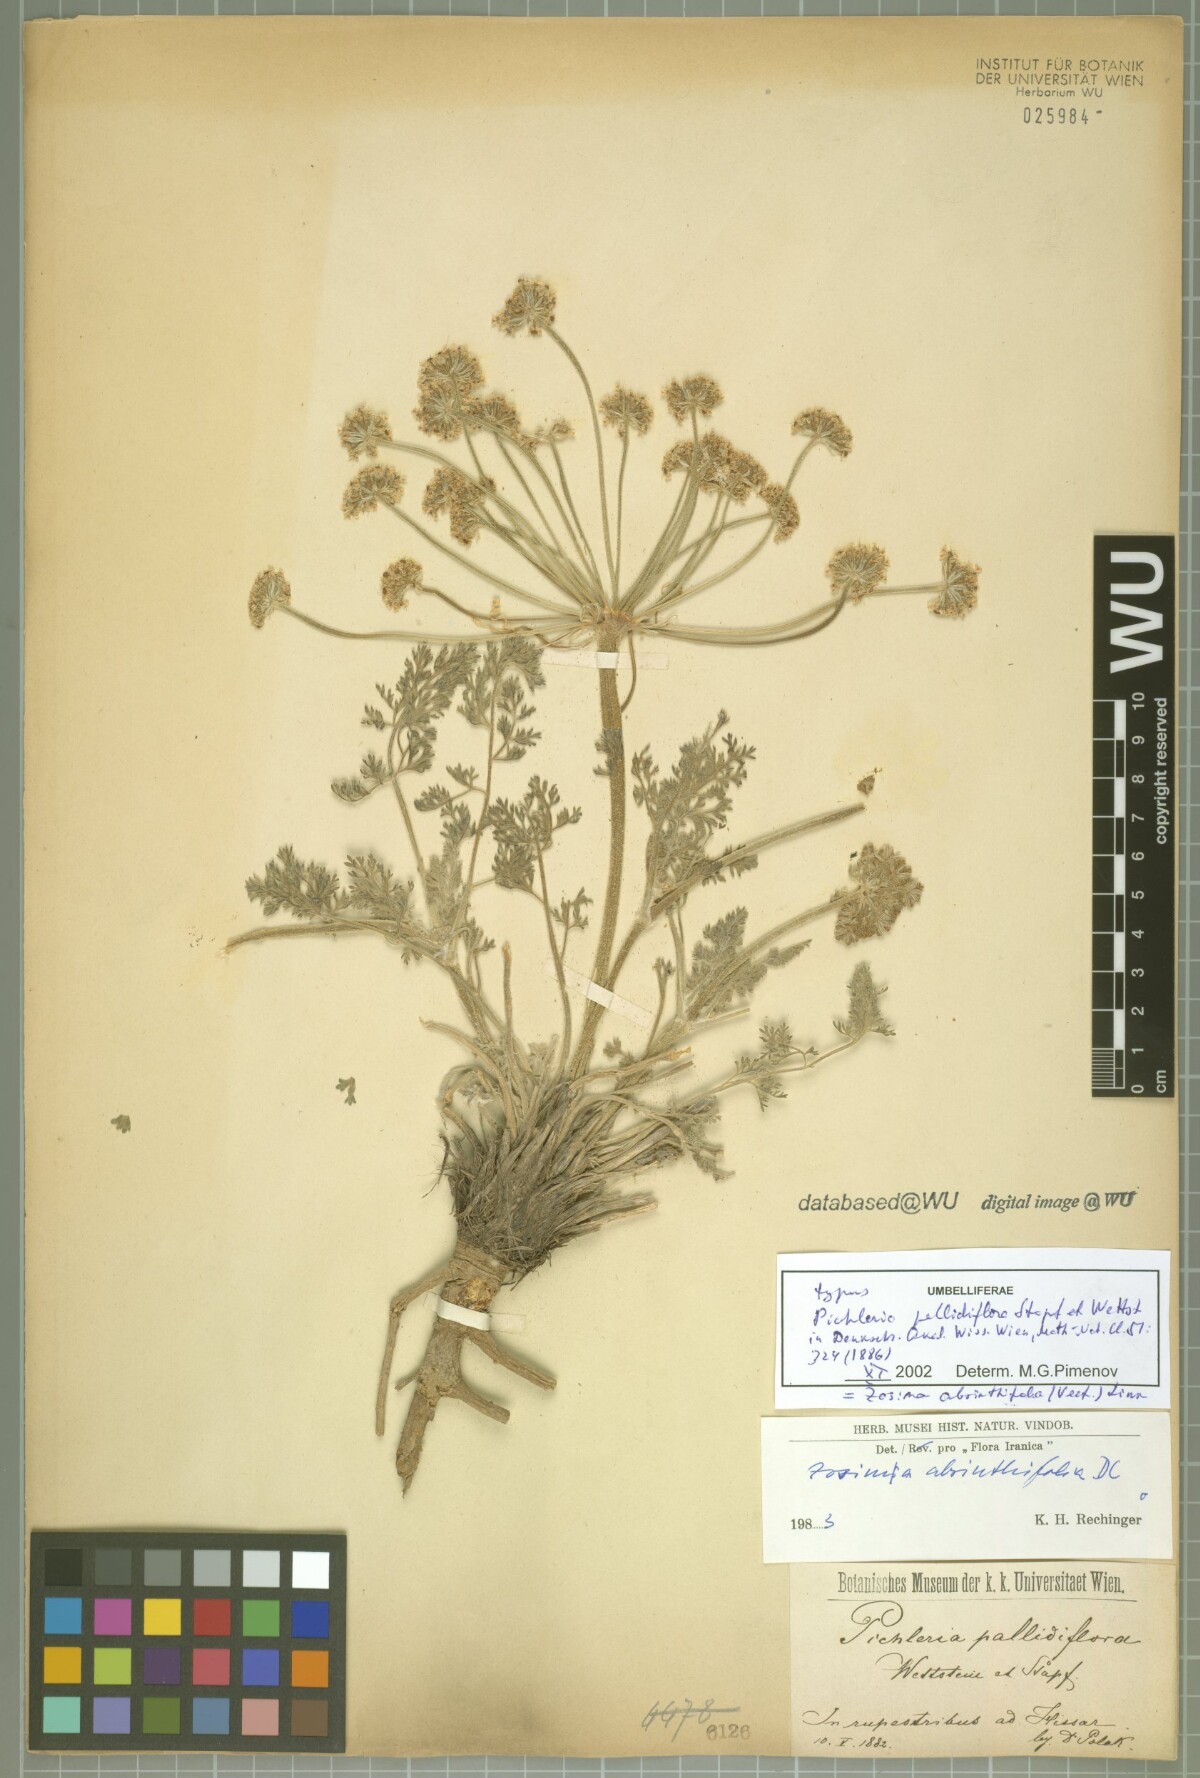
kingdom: Plantae
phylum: Tracheophyta
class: Magnoliopsida
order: Apiales
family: Apiaceae
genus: Zosima
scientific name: Zosima absinthiifolia
